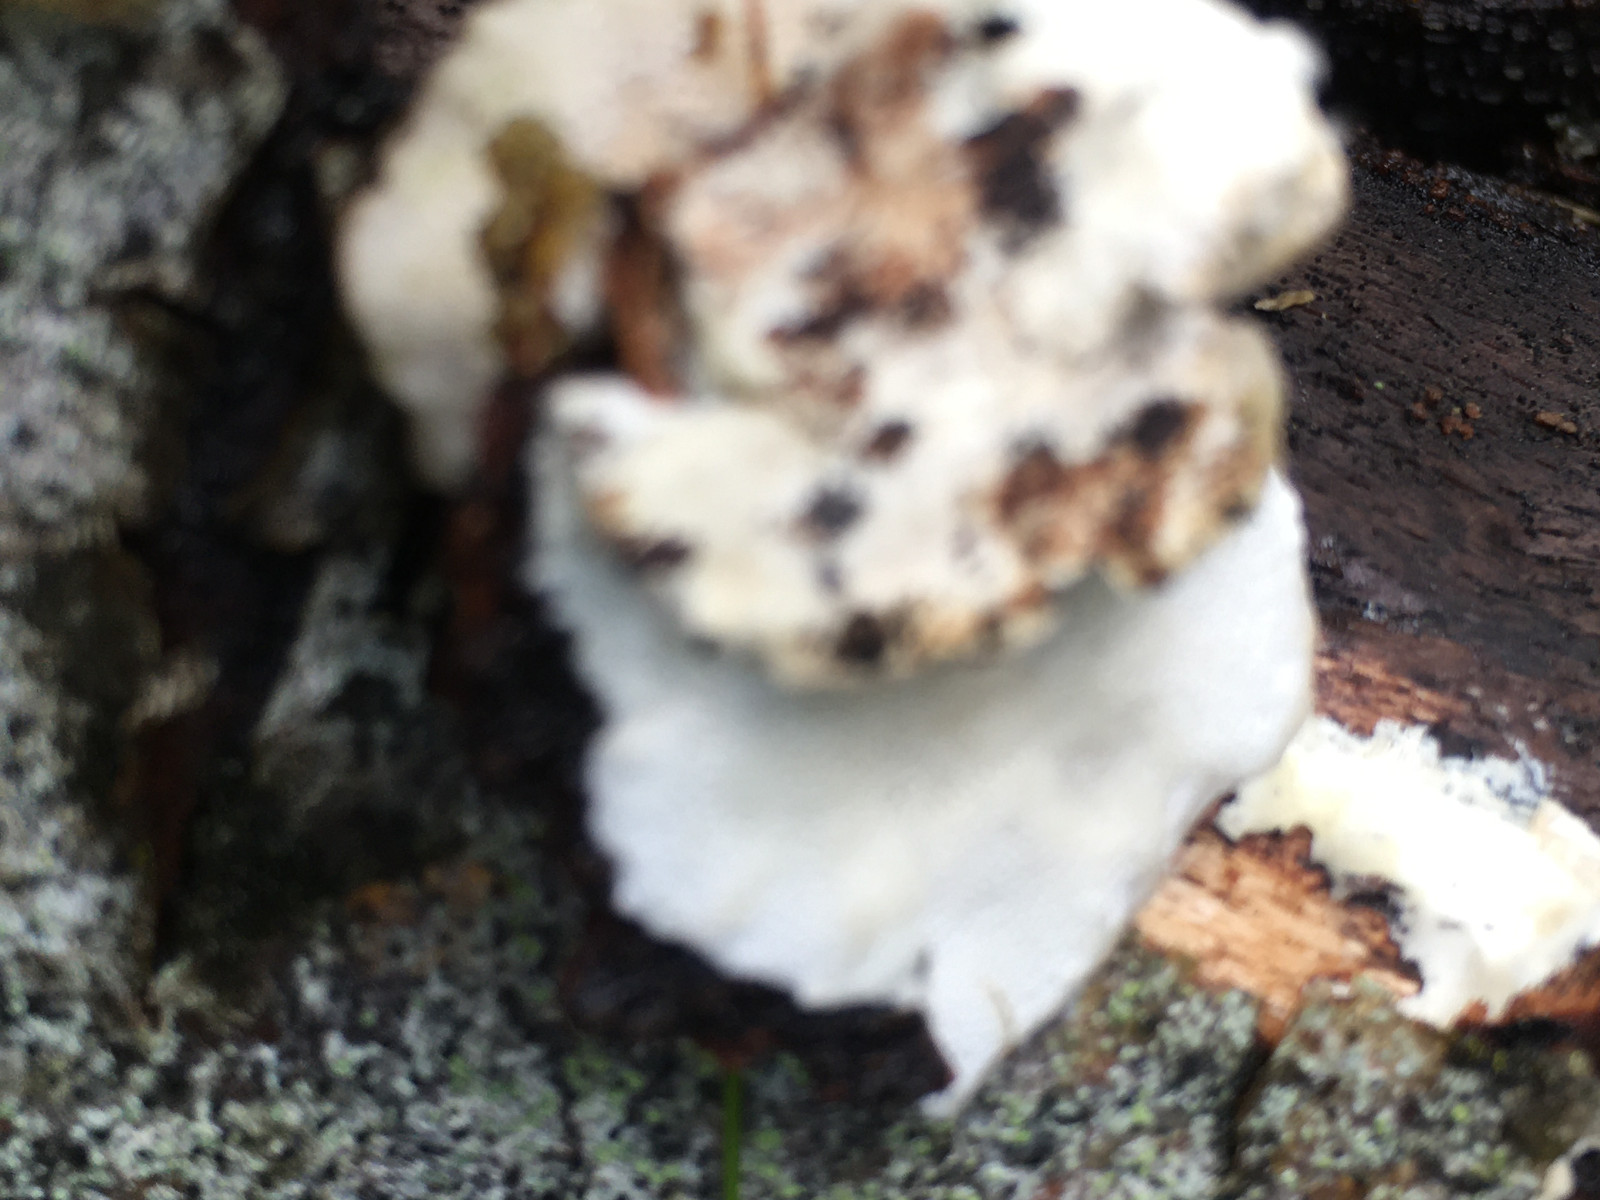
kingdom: Fungi
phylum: Basidiomycota
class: Agaricomycetes
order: Polyporales
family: Polyporaceae
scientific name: Polyporaceae
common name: poresvampfamilien
